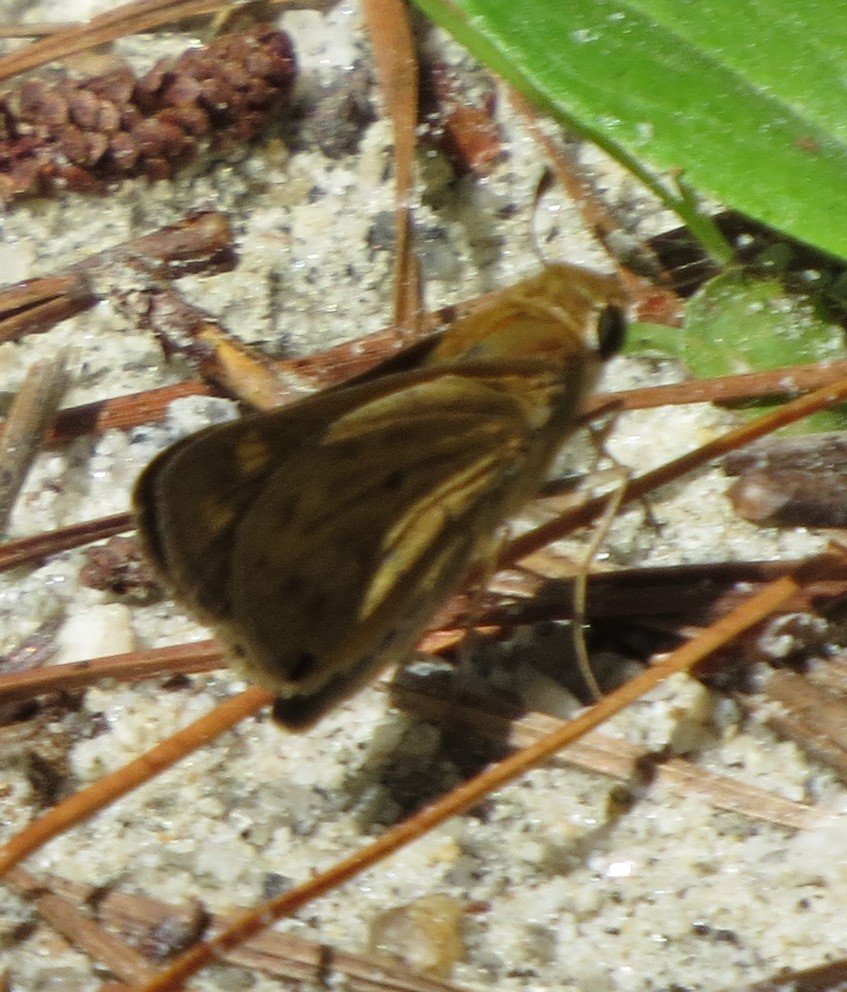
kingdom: Animalia
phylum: Arthropoda
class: Insecta
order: Lepidoptera
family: Hesperiidae
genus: Hylephila
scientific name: Hylephila phyleus
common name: Fiery Skipper
